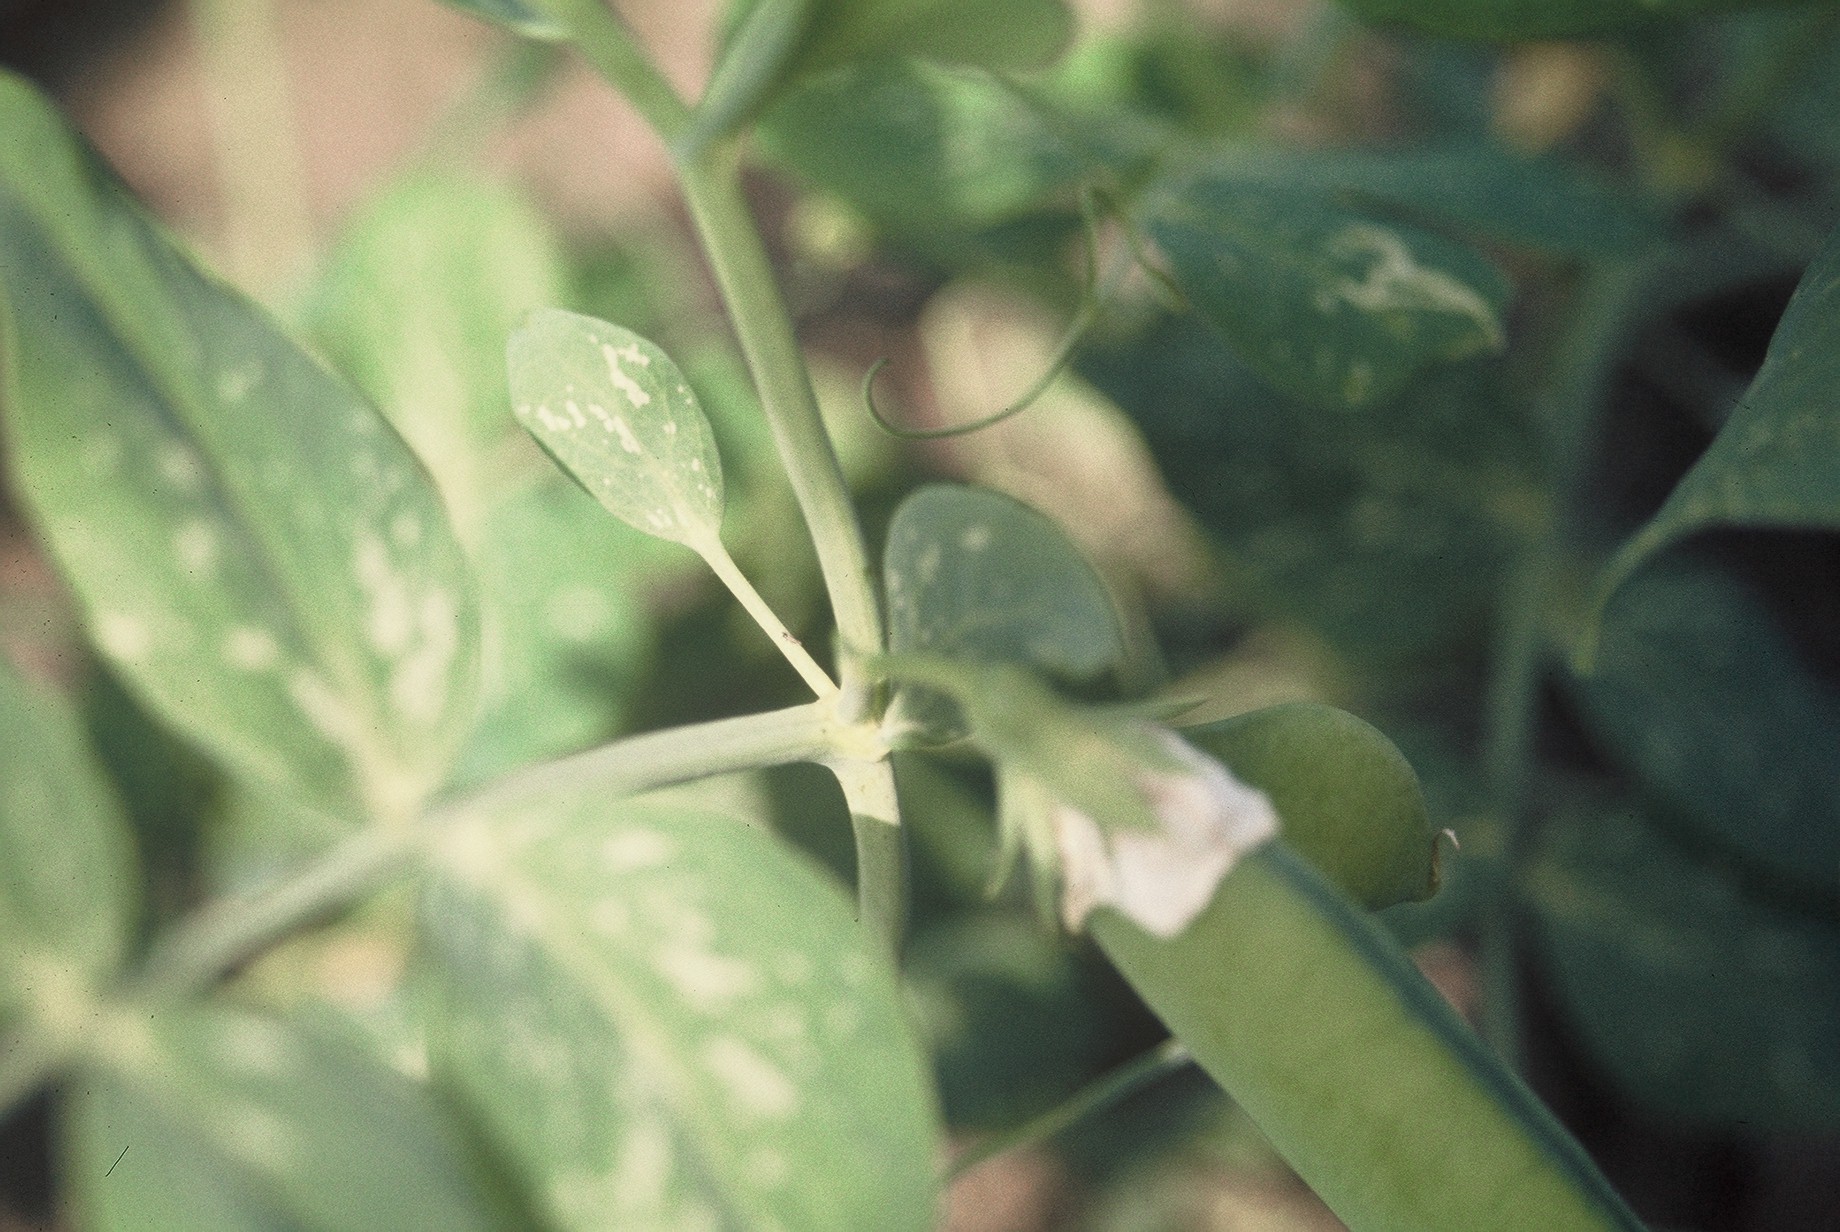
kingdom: Plantae
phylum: Tracheophyta
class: Magnoliopsida
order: Fabales
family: Fabaceae
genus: Lathyrus
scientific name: Lathyrus oleraceus
